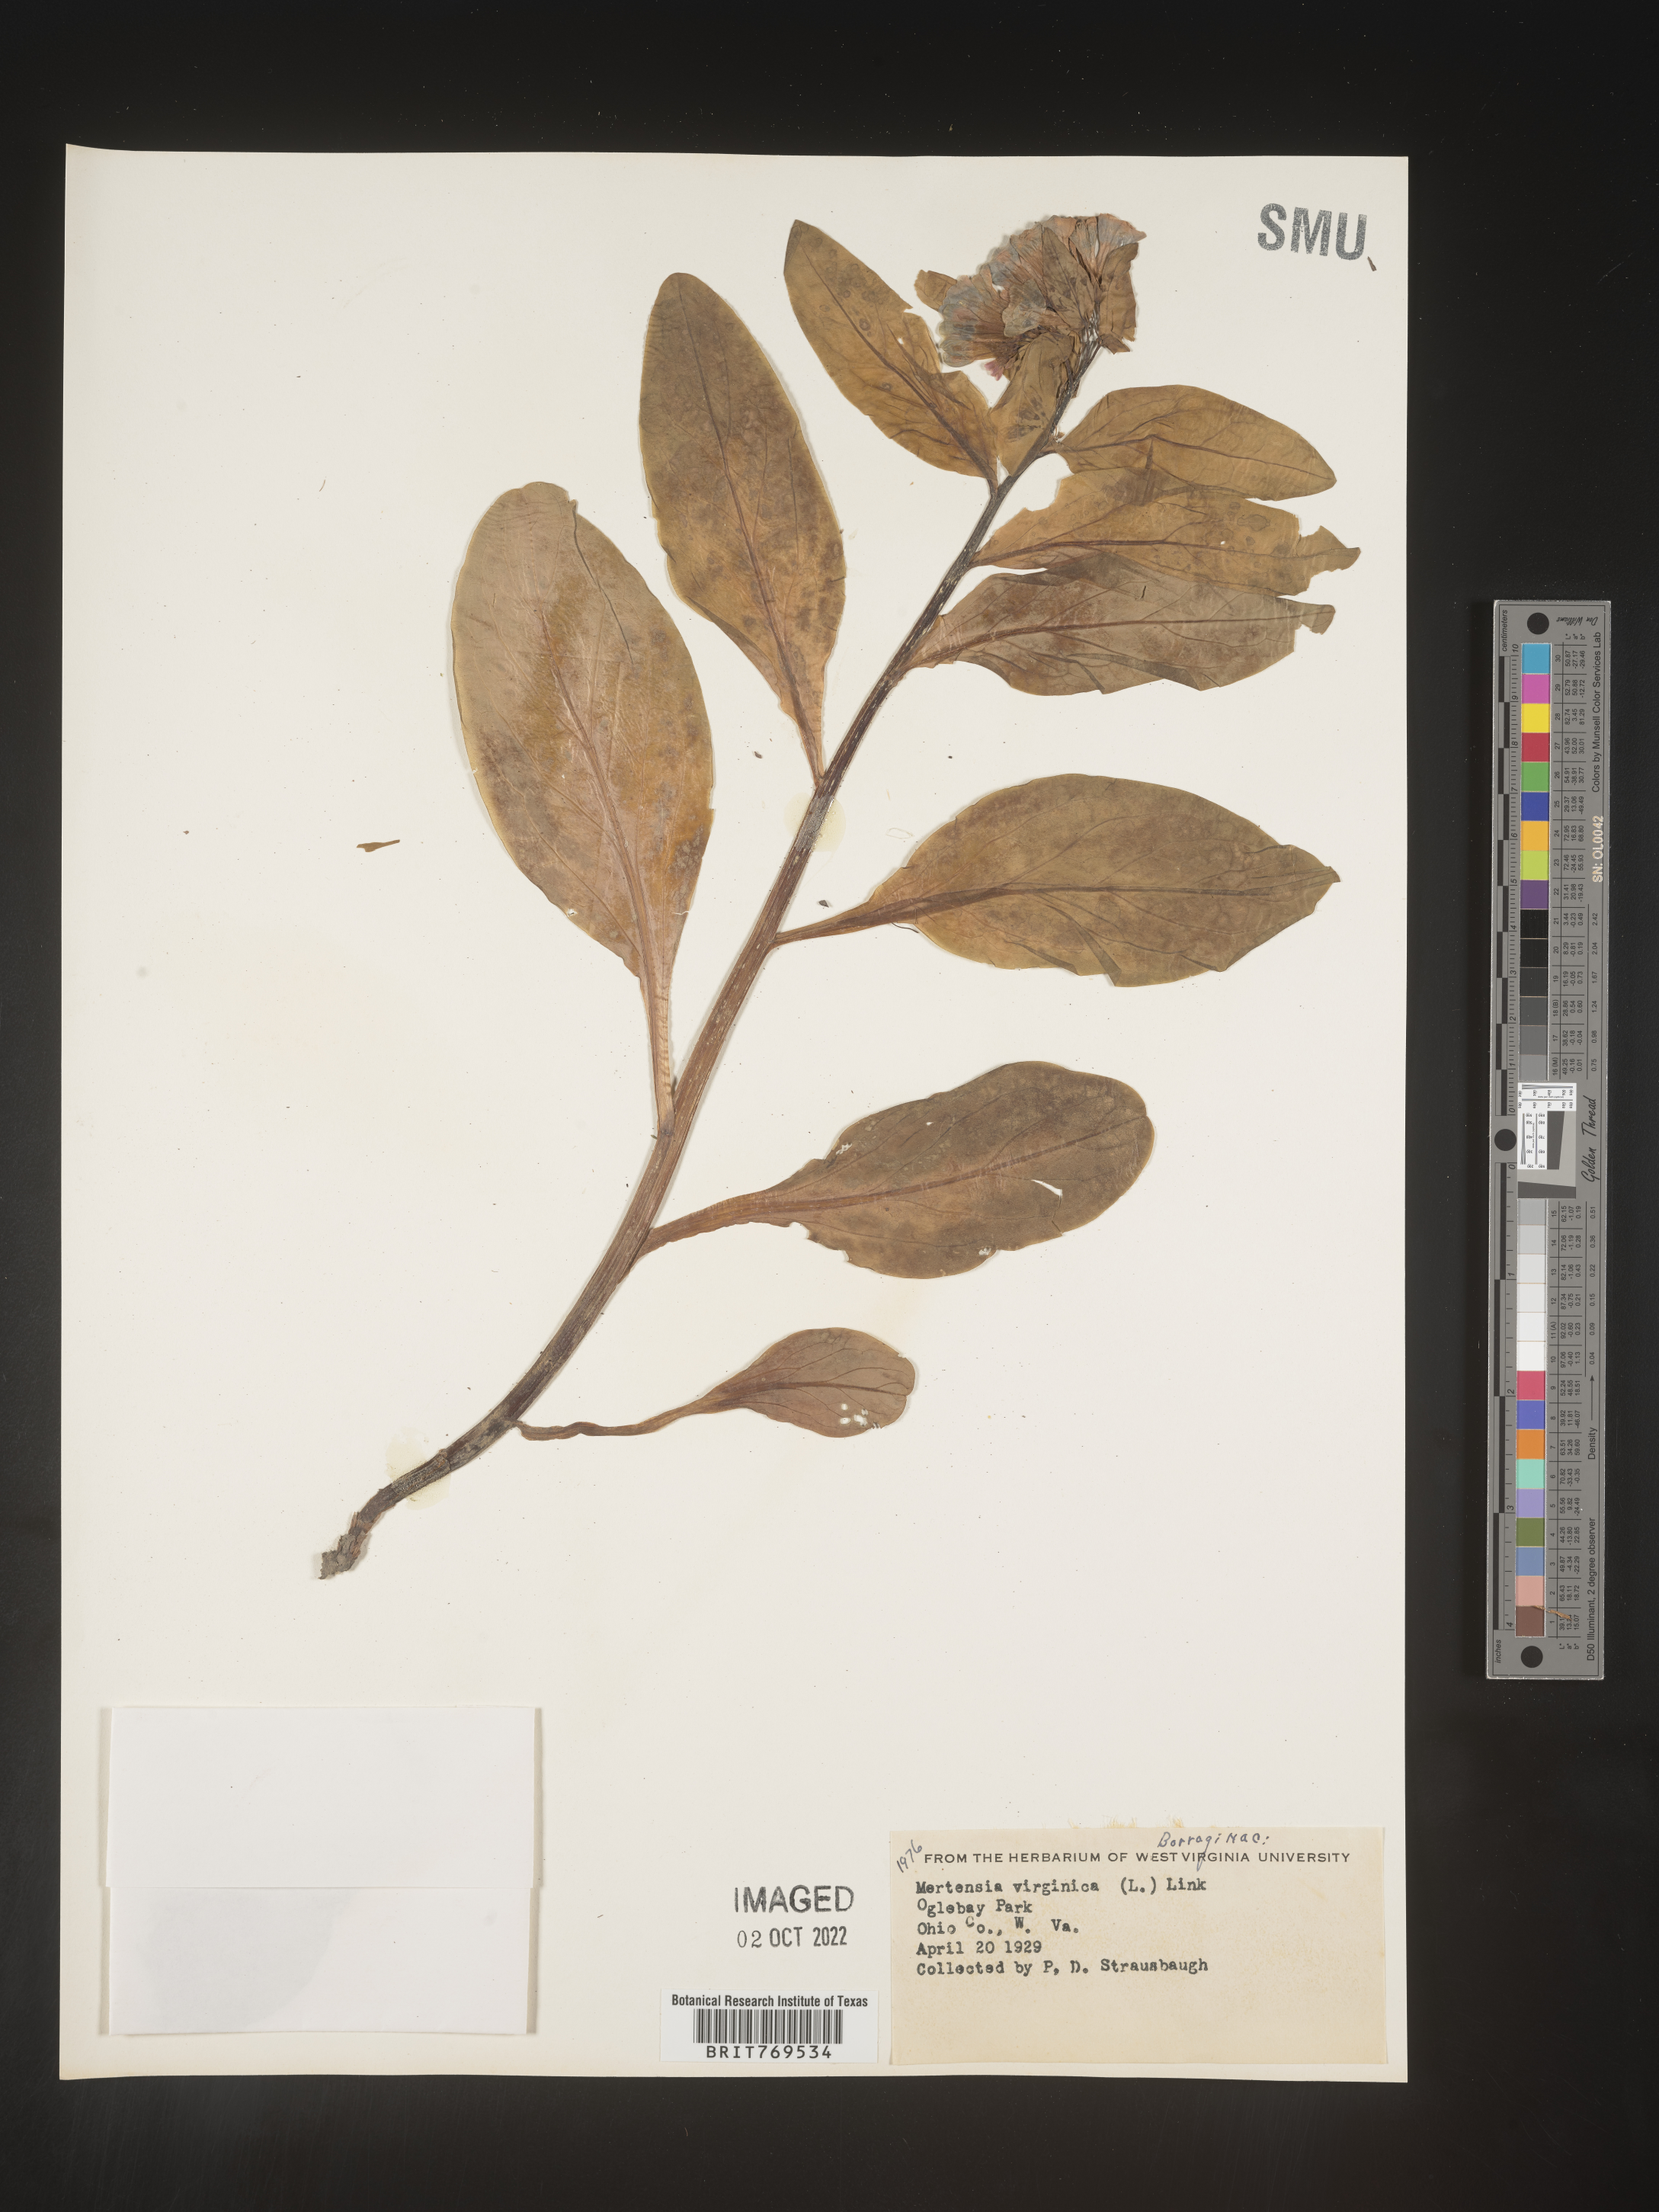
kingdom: Plantae
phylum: Tracheophyta
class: Magnoliopsida
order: Boraginales
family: Boraginaceae
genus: Mertensia
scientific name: Mertensia virginica
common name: Virginia bluebells
